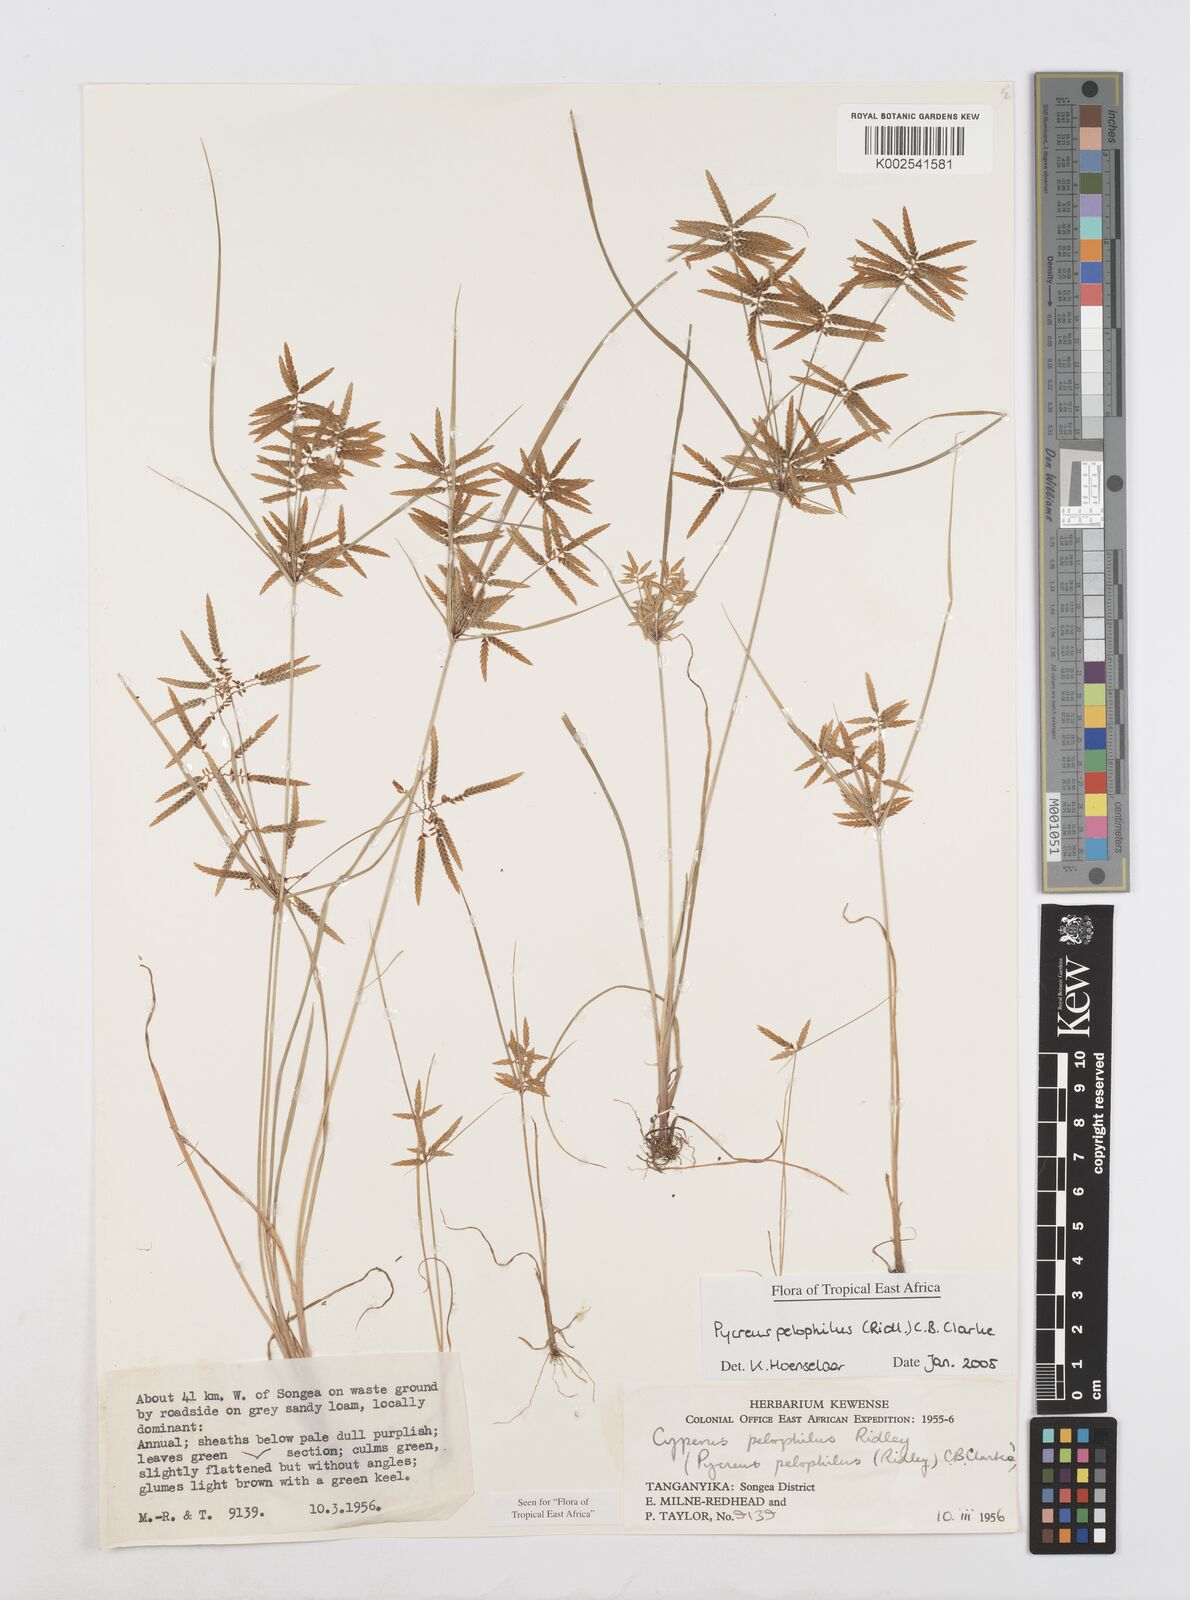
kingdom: Plantae
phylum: Tracheophyta
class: Liliopsida
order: Poales
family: Cyperaceae
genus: Cyperus
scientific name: Cyperus pelophilus
